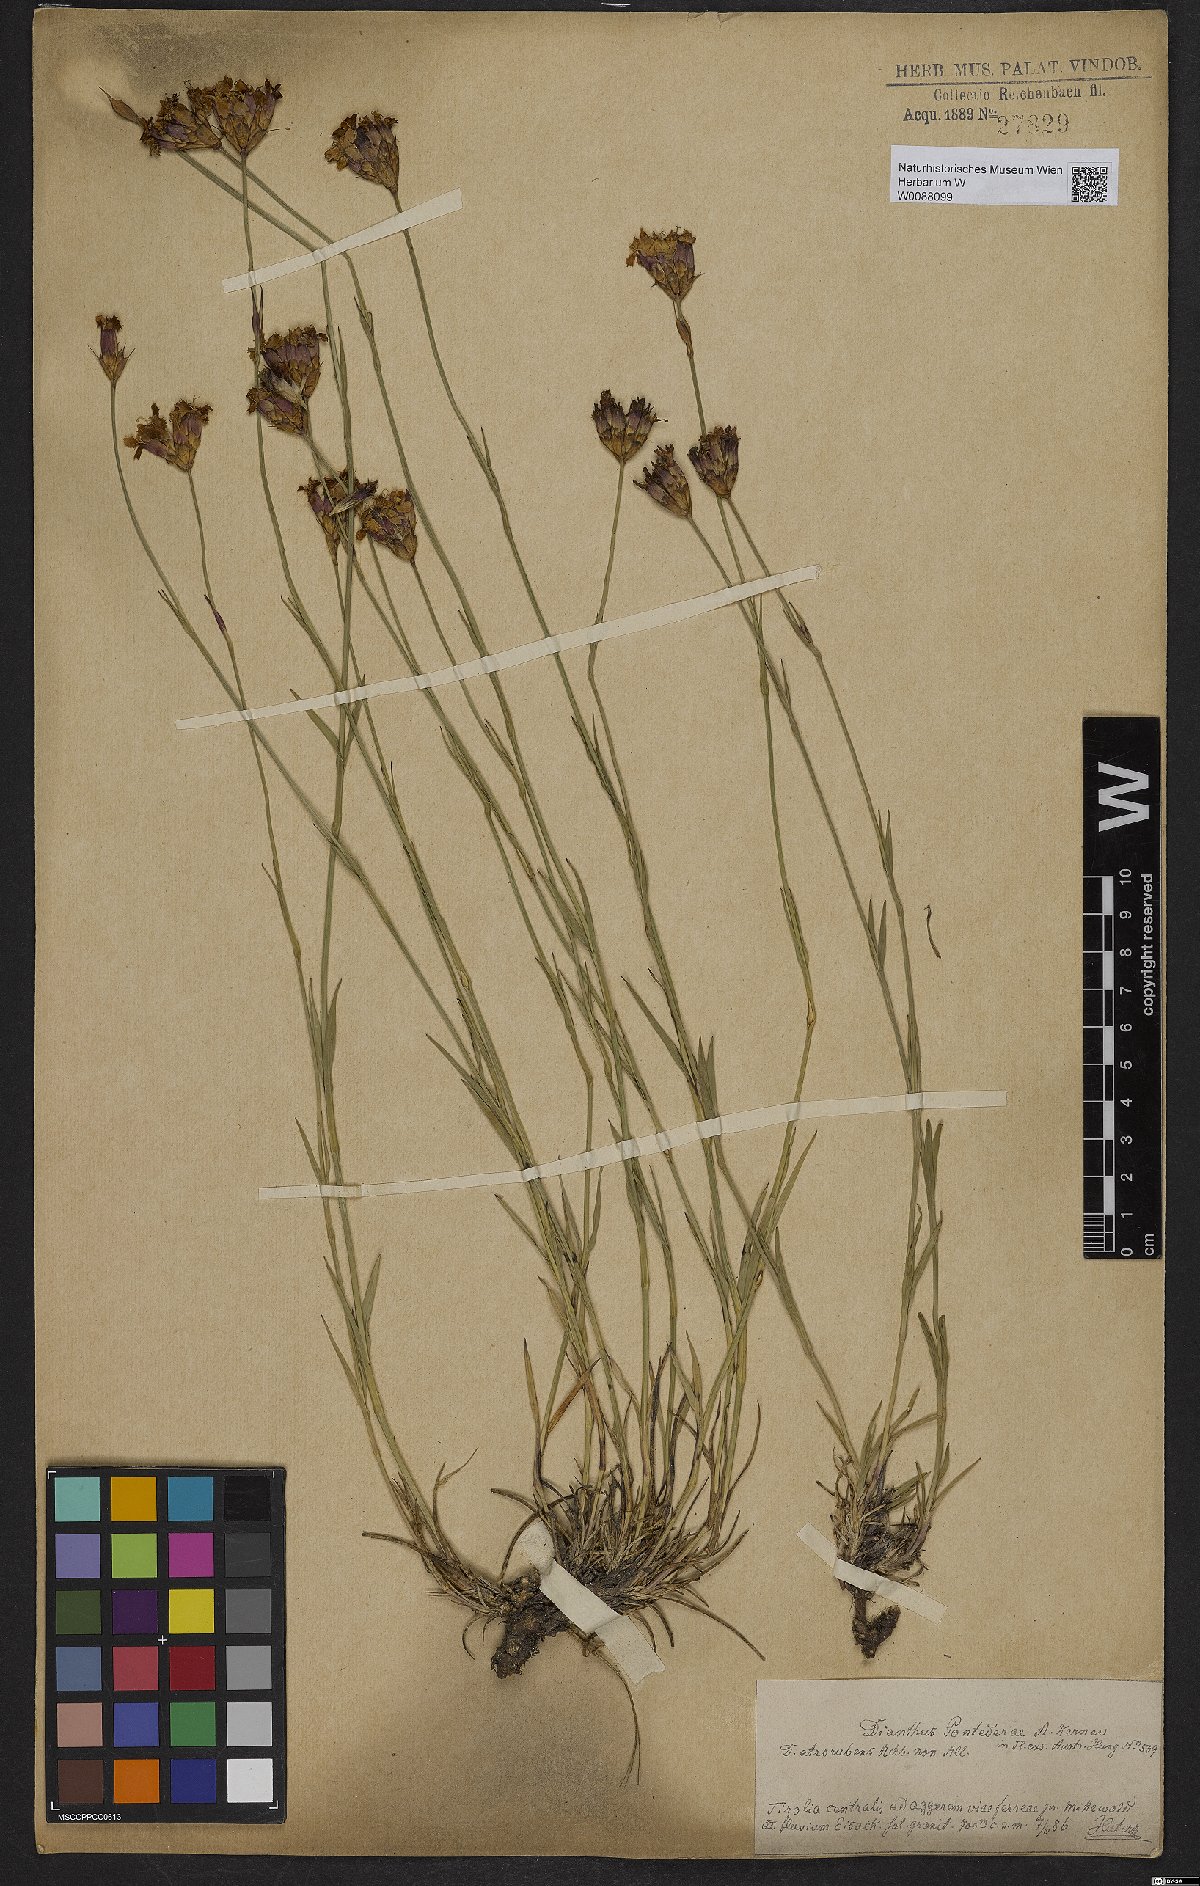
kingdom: Plantae
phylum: Tracheophyta
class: Magnoliopsida
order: Caryophyllales
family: Caryophyllaceae
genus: Dianthus
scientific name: Dianthus pontederae
